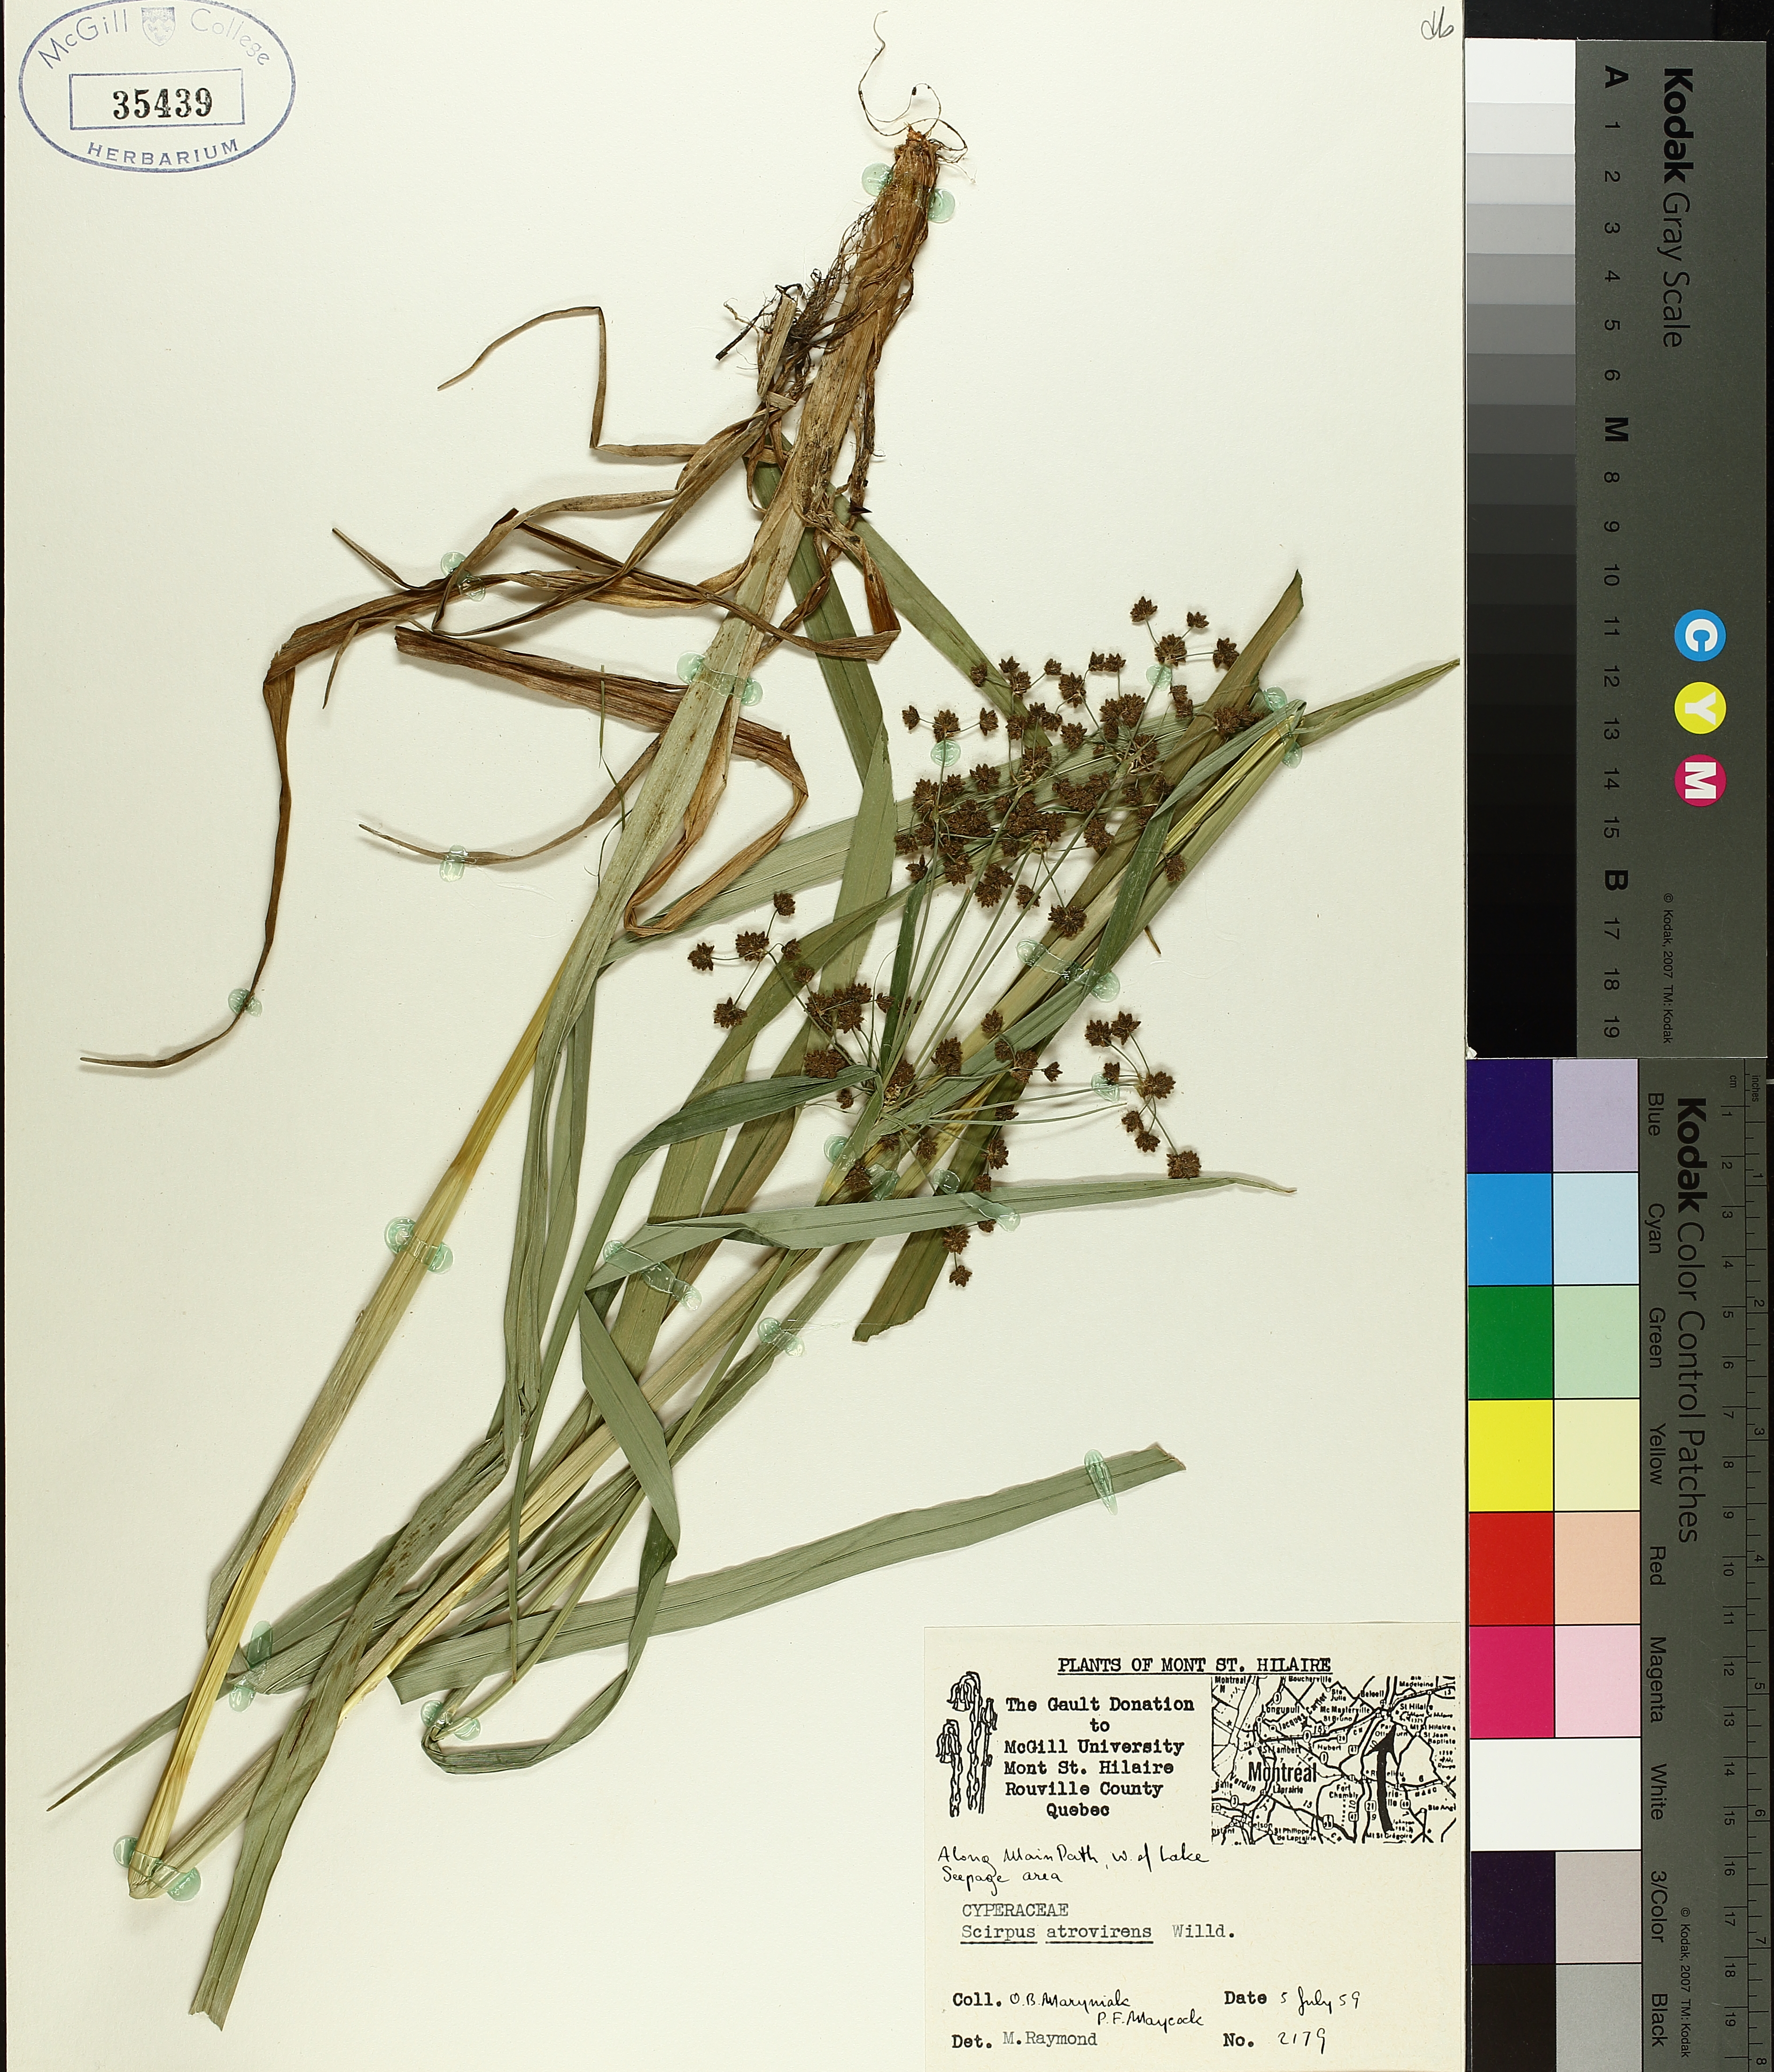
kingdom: Plantae
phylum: Tracheophyta
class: Liliopsida
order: Poales
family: Cyperaceae
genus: Scirpus
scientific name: Scirpus atrovirens
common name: Black bulrush
